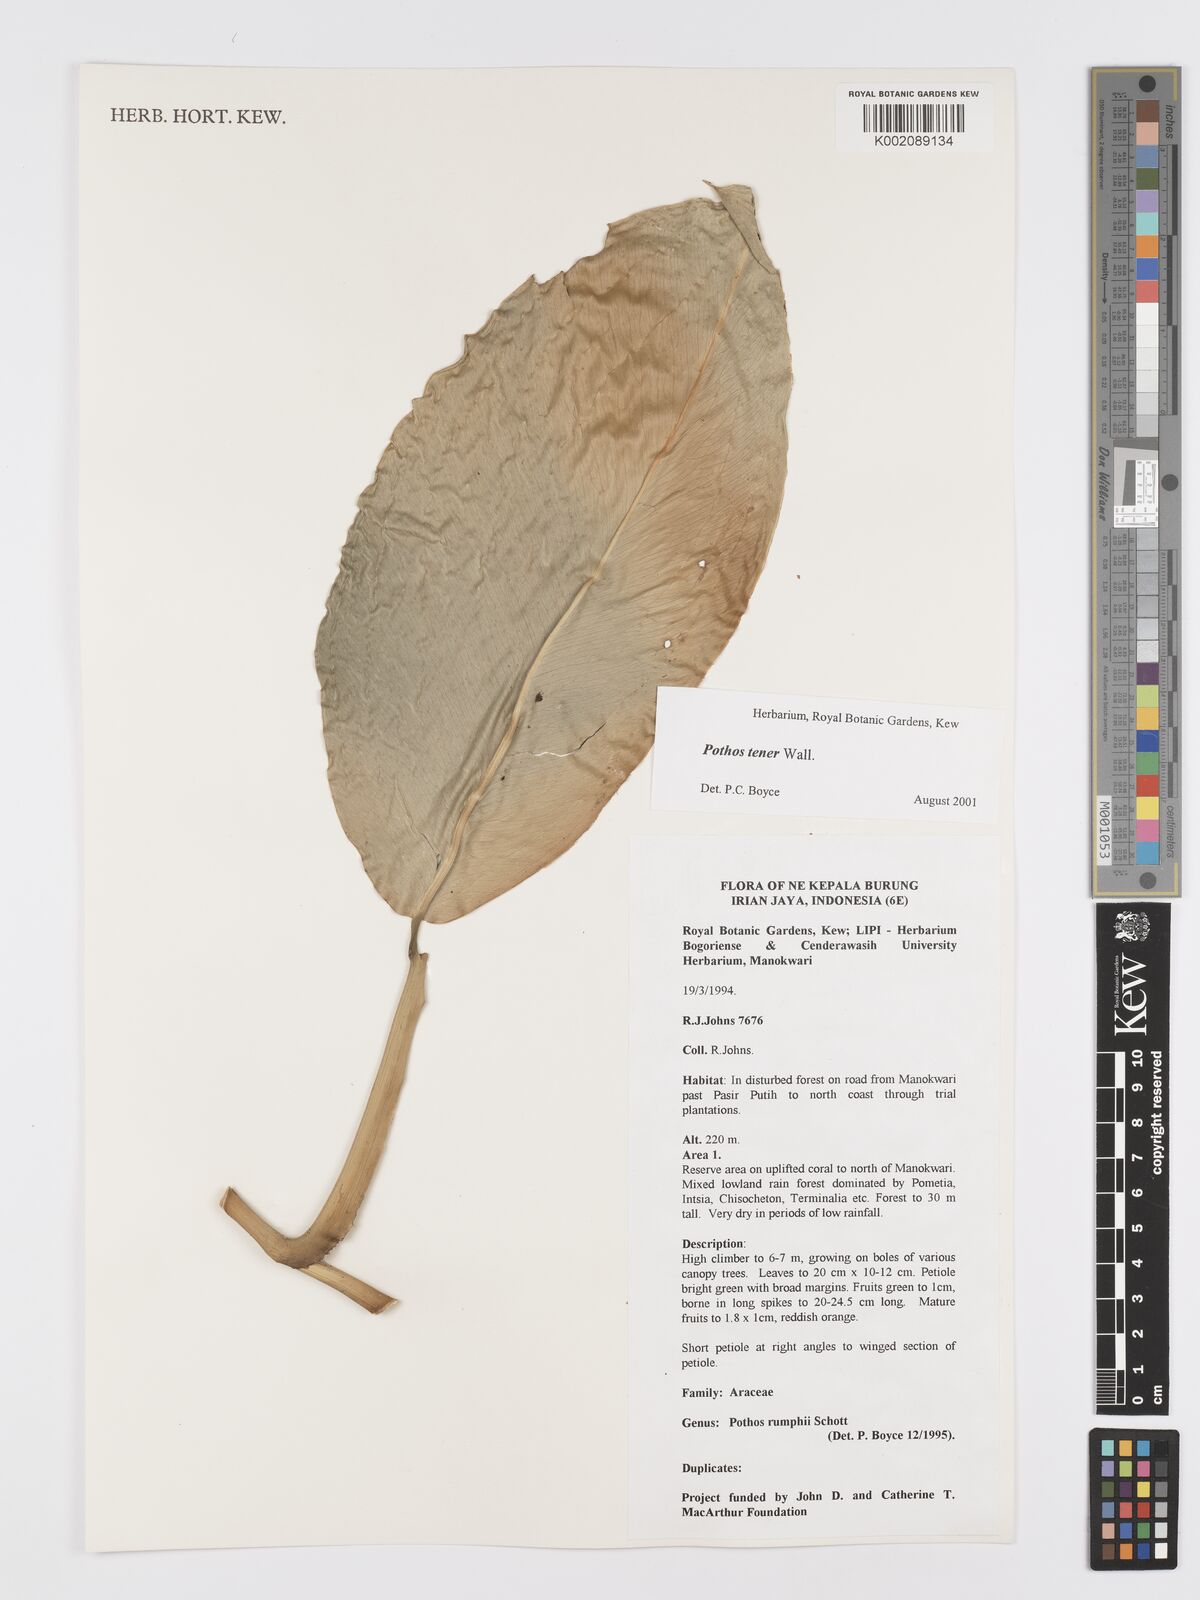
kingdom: Plantae
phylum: Tracheophyta
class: Liliopsida
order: Alismatales
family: Araceae
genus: Pothos
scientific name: Pothos tener
